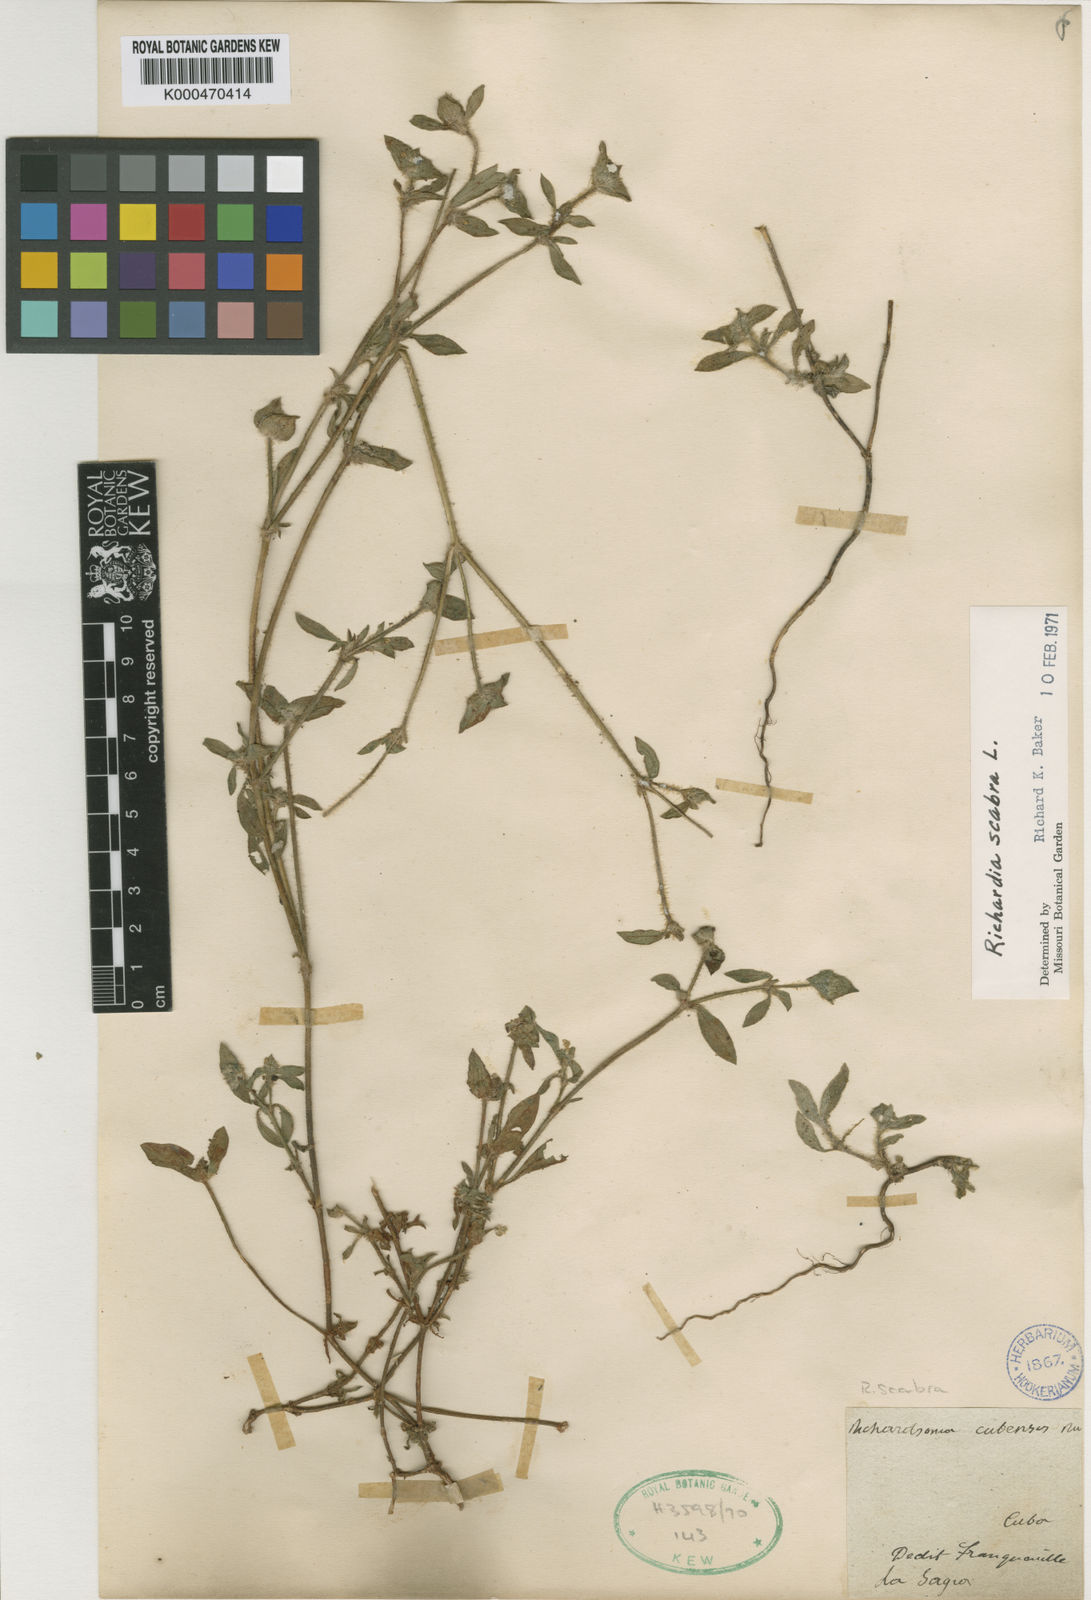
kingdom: Plantae
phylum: Tracheophyta
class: Magnoliopsida
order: Gentianales
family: Rubiaceae
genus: Richardia
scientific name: Richardia scabra
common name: Rough mexican clover
